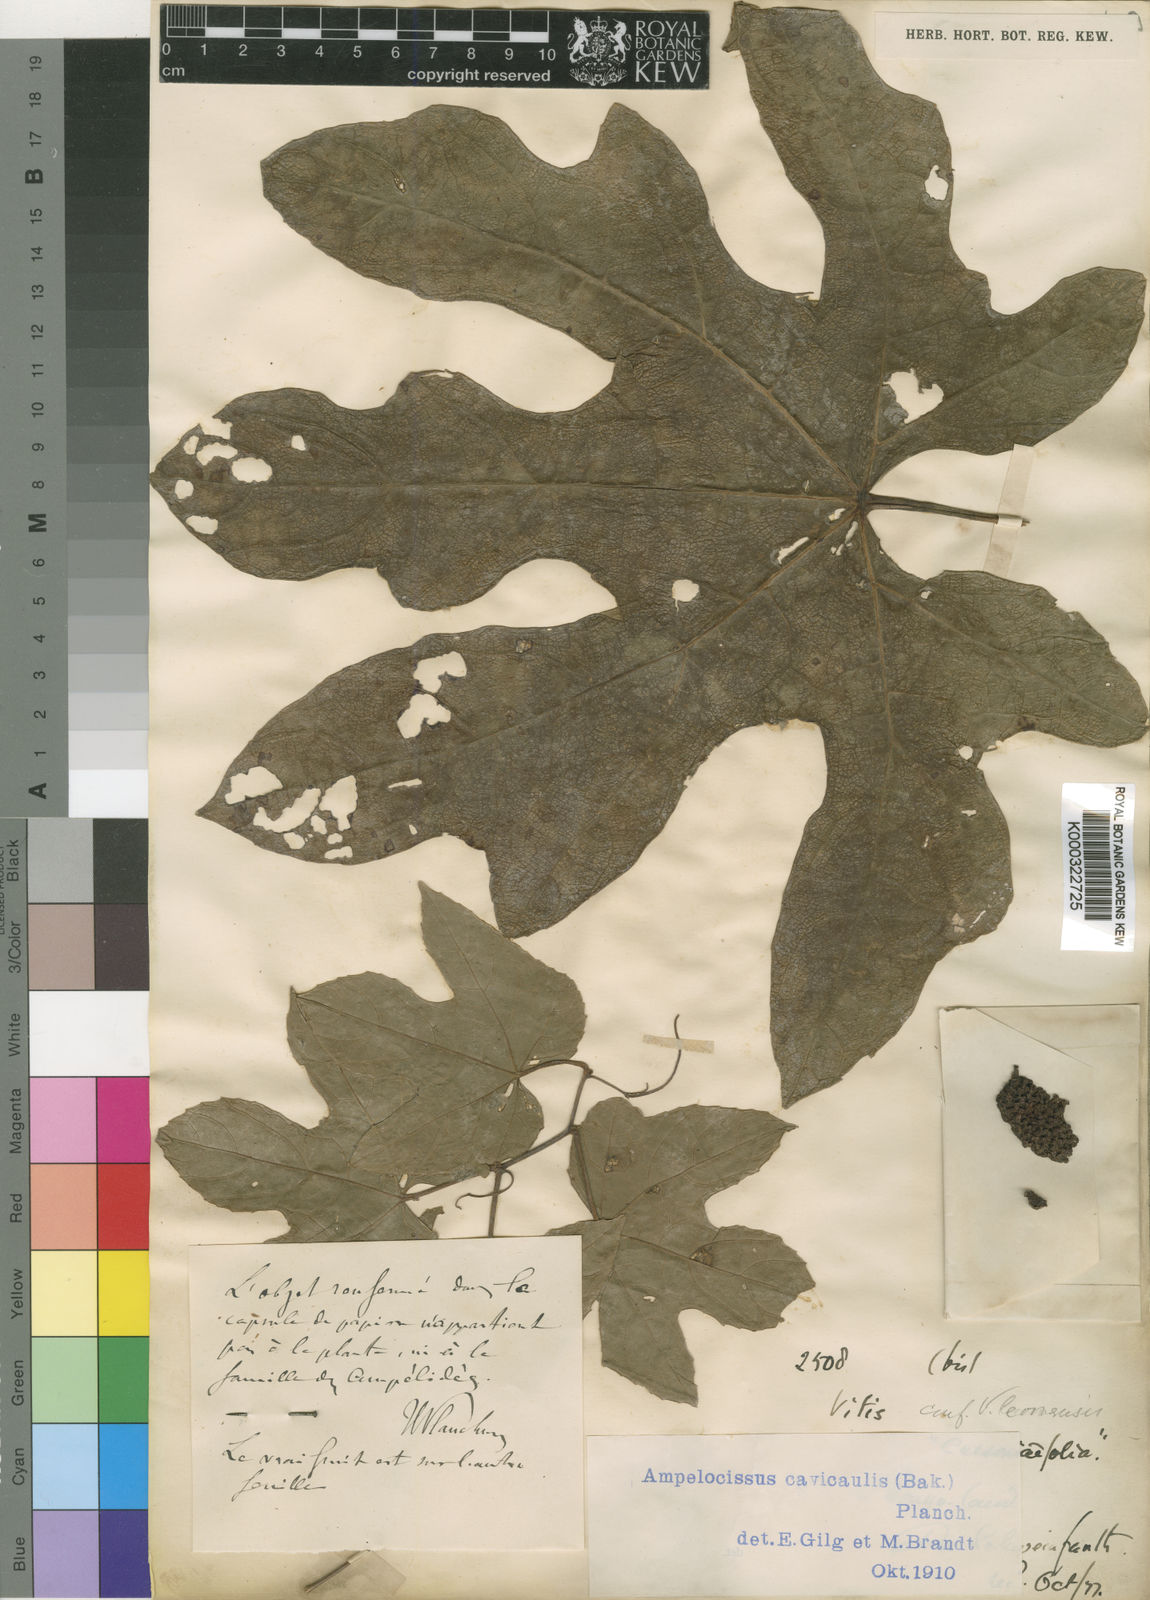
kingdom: Plantae
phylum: Tracheophyta
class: Magnoliopsida
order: Vitales
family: Vitaceae
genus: Ampelocissus
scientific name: Ampelocissus abyssinica
